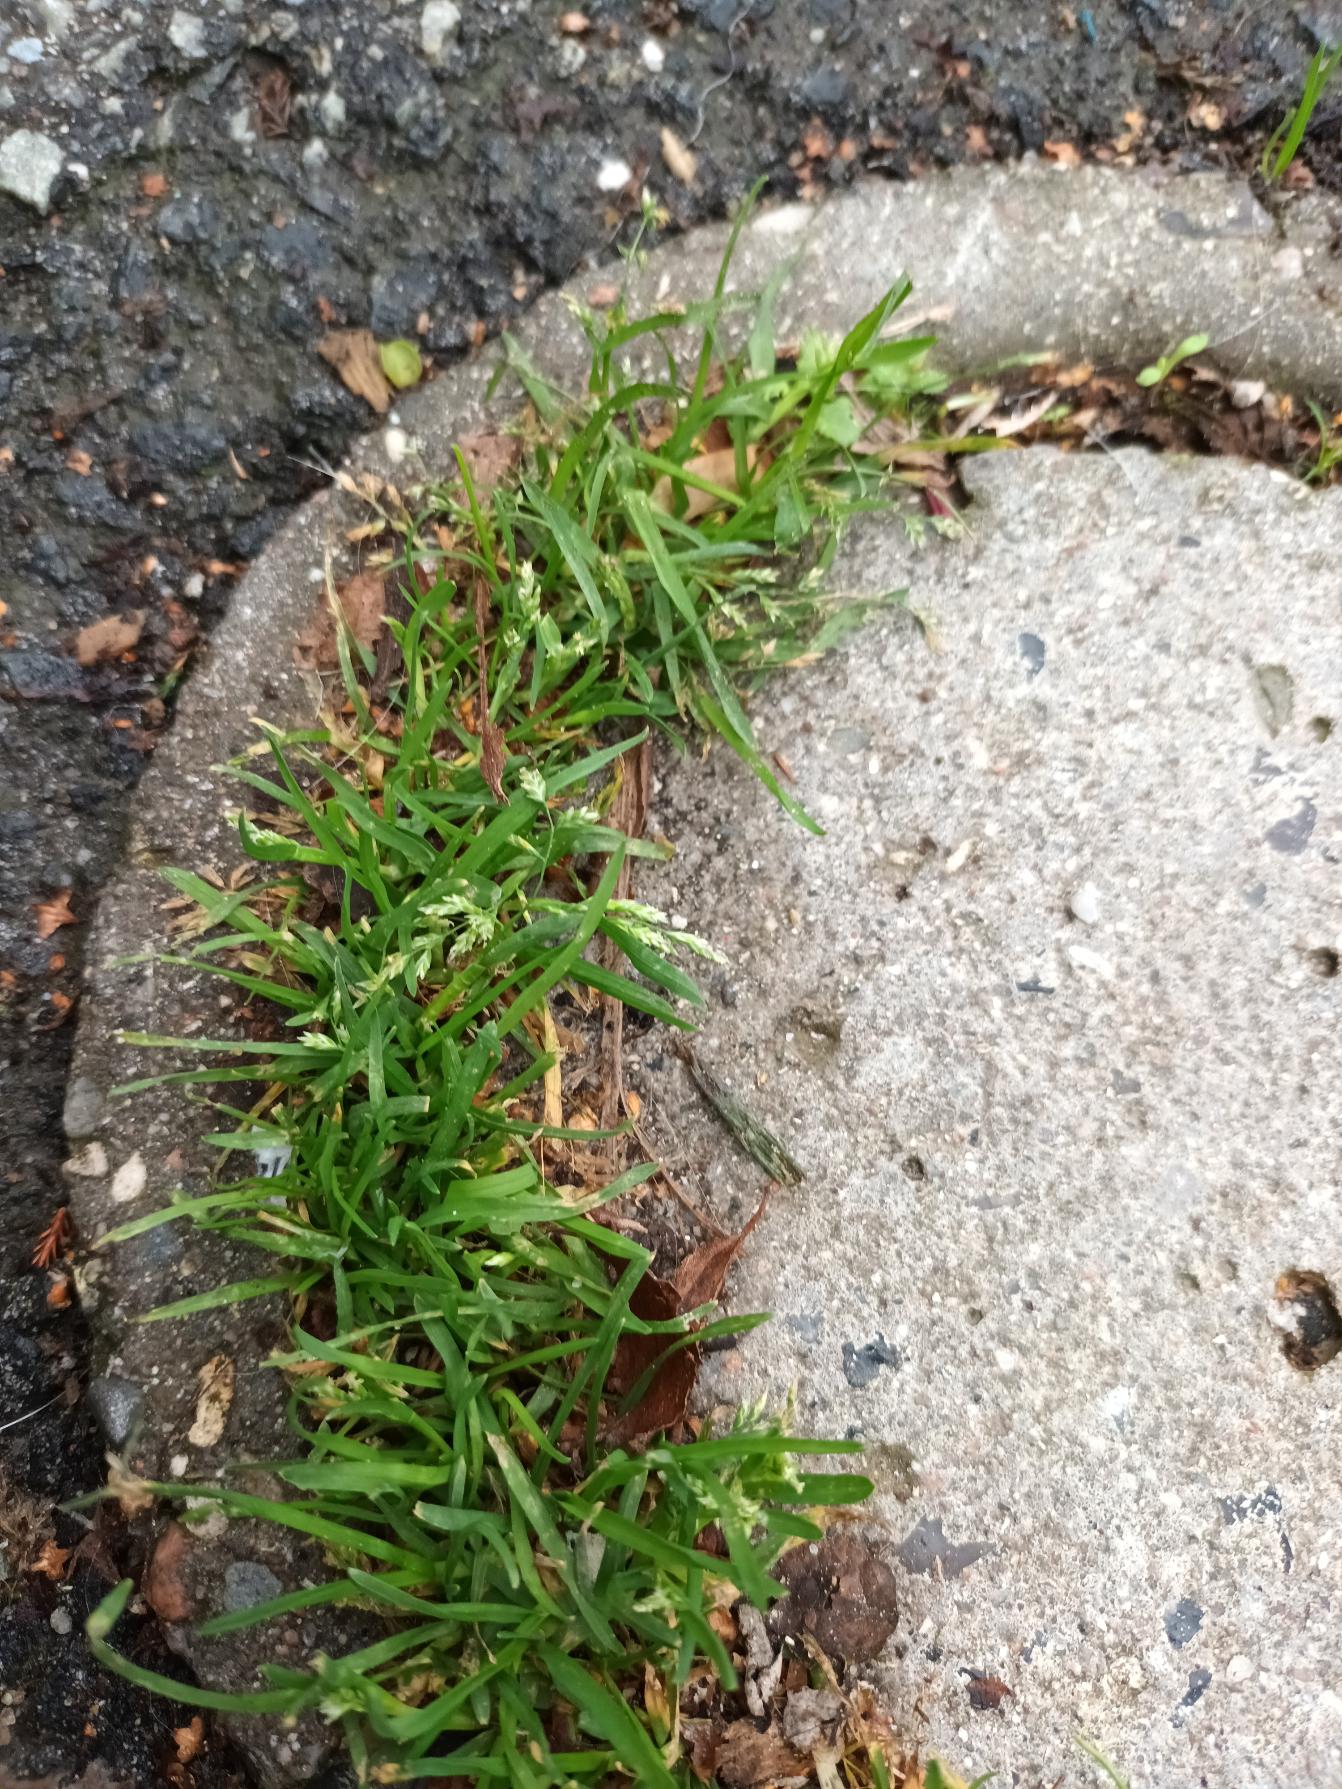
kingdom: Plantae
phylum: Tracheophyta
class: Liliopsida
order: Poales
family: Poaceae
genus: Poa
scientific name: Poa annua
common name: Enårig rapgræs
